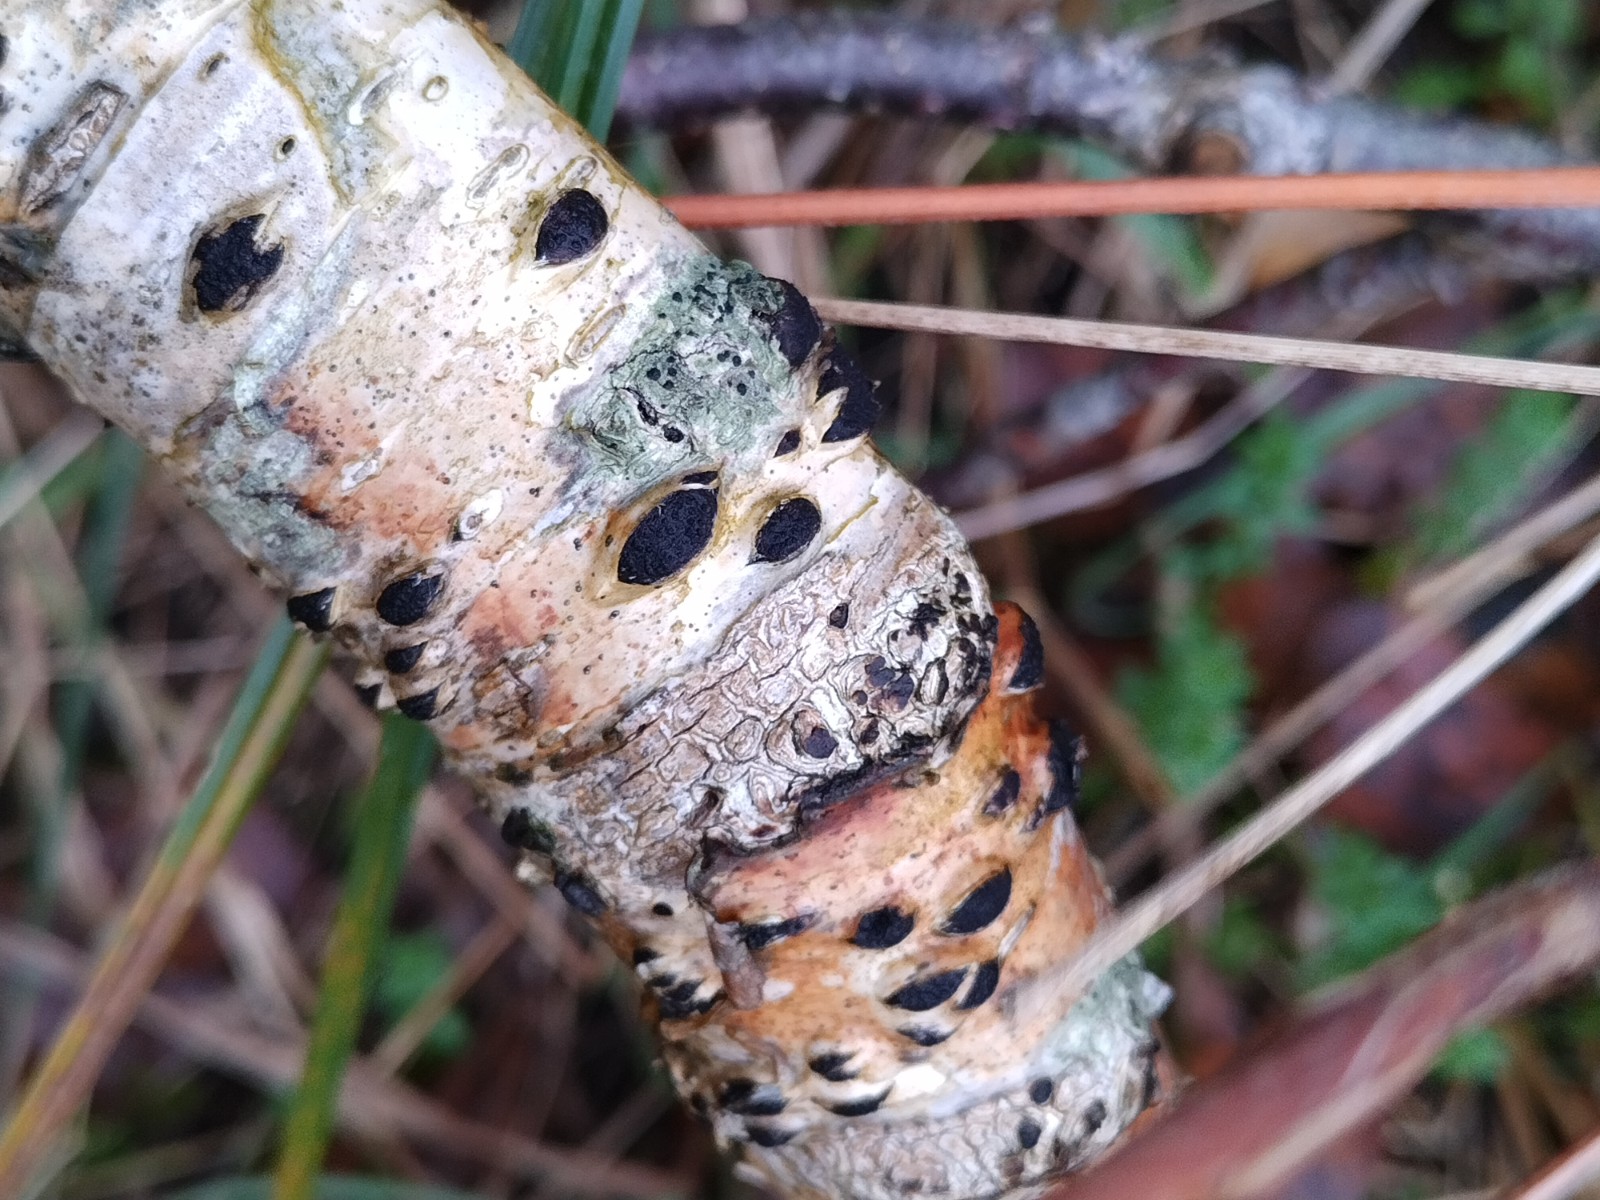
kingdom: Fungi
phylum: Ascomycota
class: Sordariomycetes
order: Xylariales
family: Hypoxylaceae
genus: Jackrogersella
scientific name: Jackrogersella multiformis
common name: foranderlig kulbær
